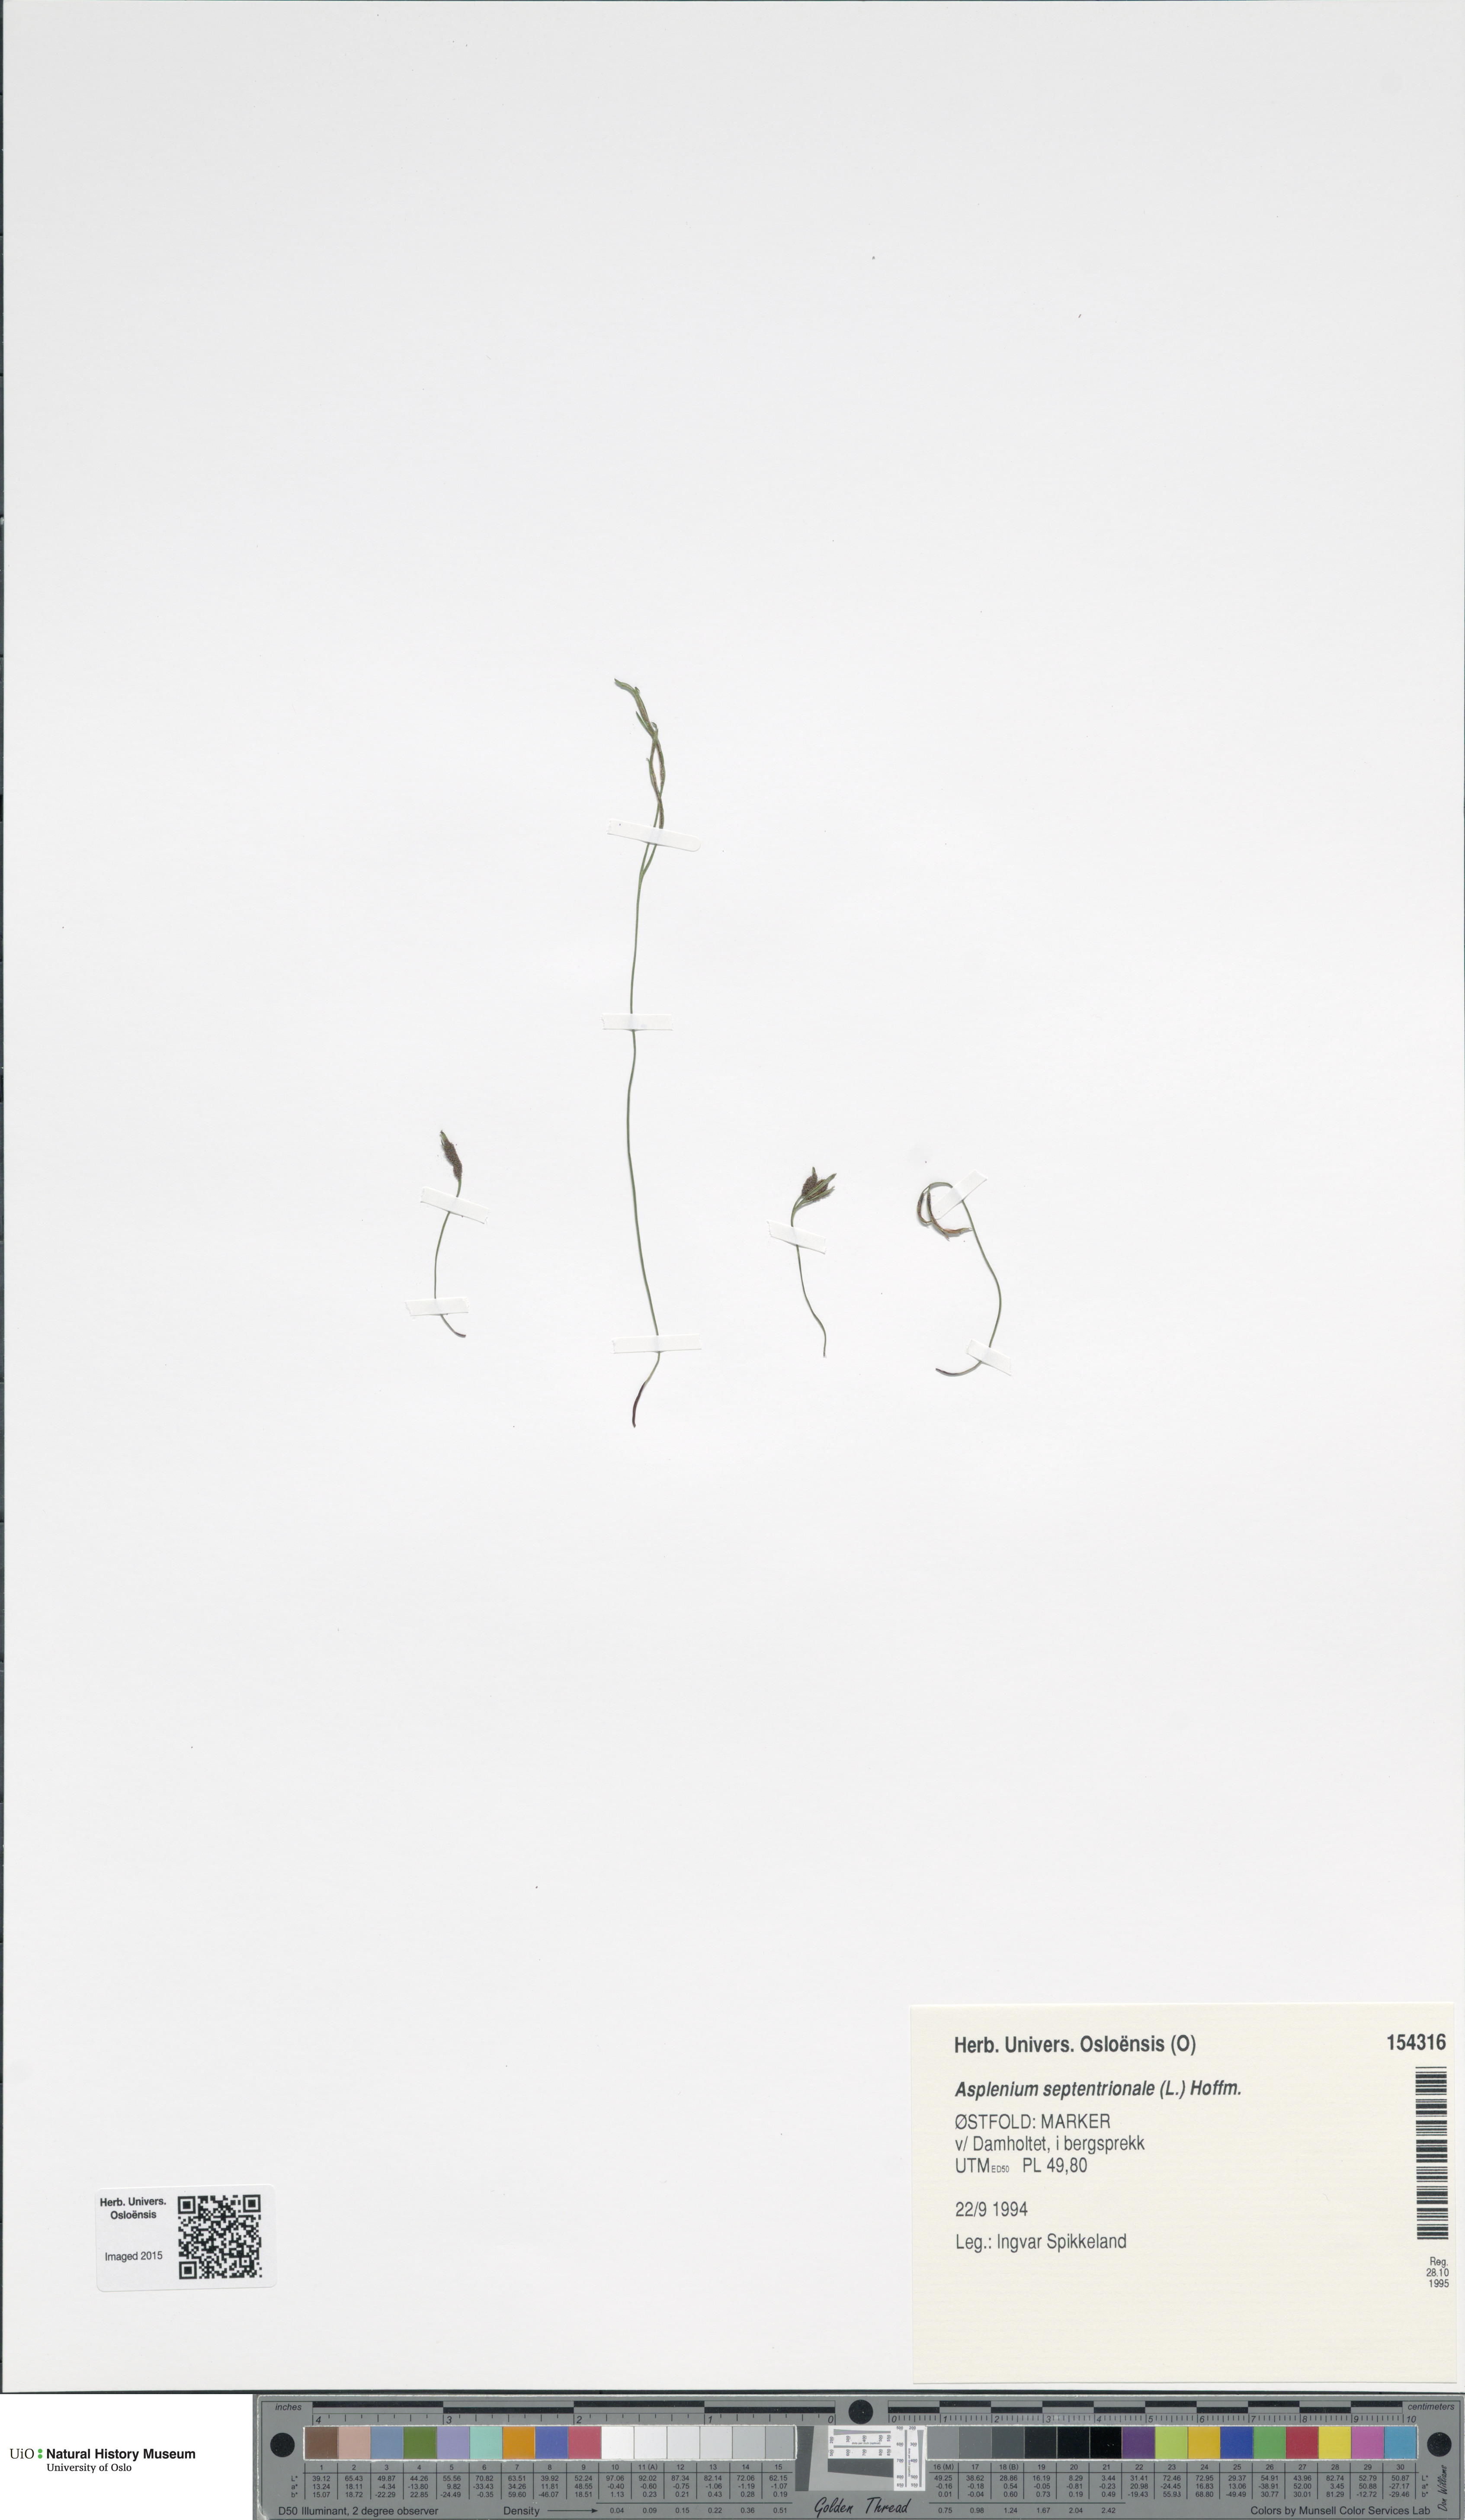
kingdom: Plantae
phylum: Tracheophyta
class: Polypodiopsida
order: Polypodiales
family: Aspleniaceae
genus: Asplenium
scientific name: Asplenium septentrionale
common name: Forked spleenwort
